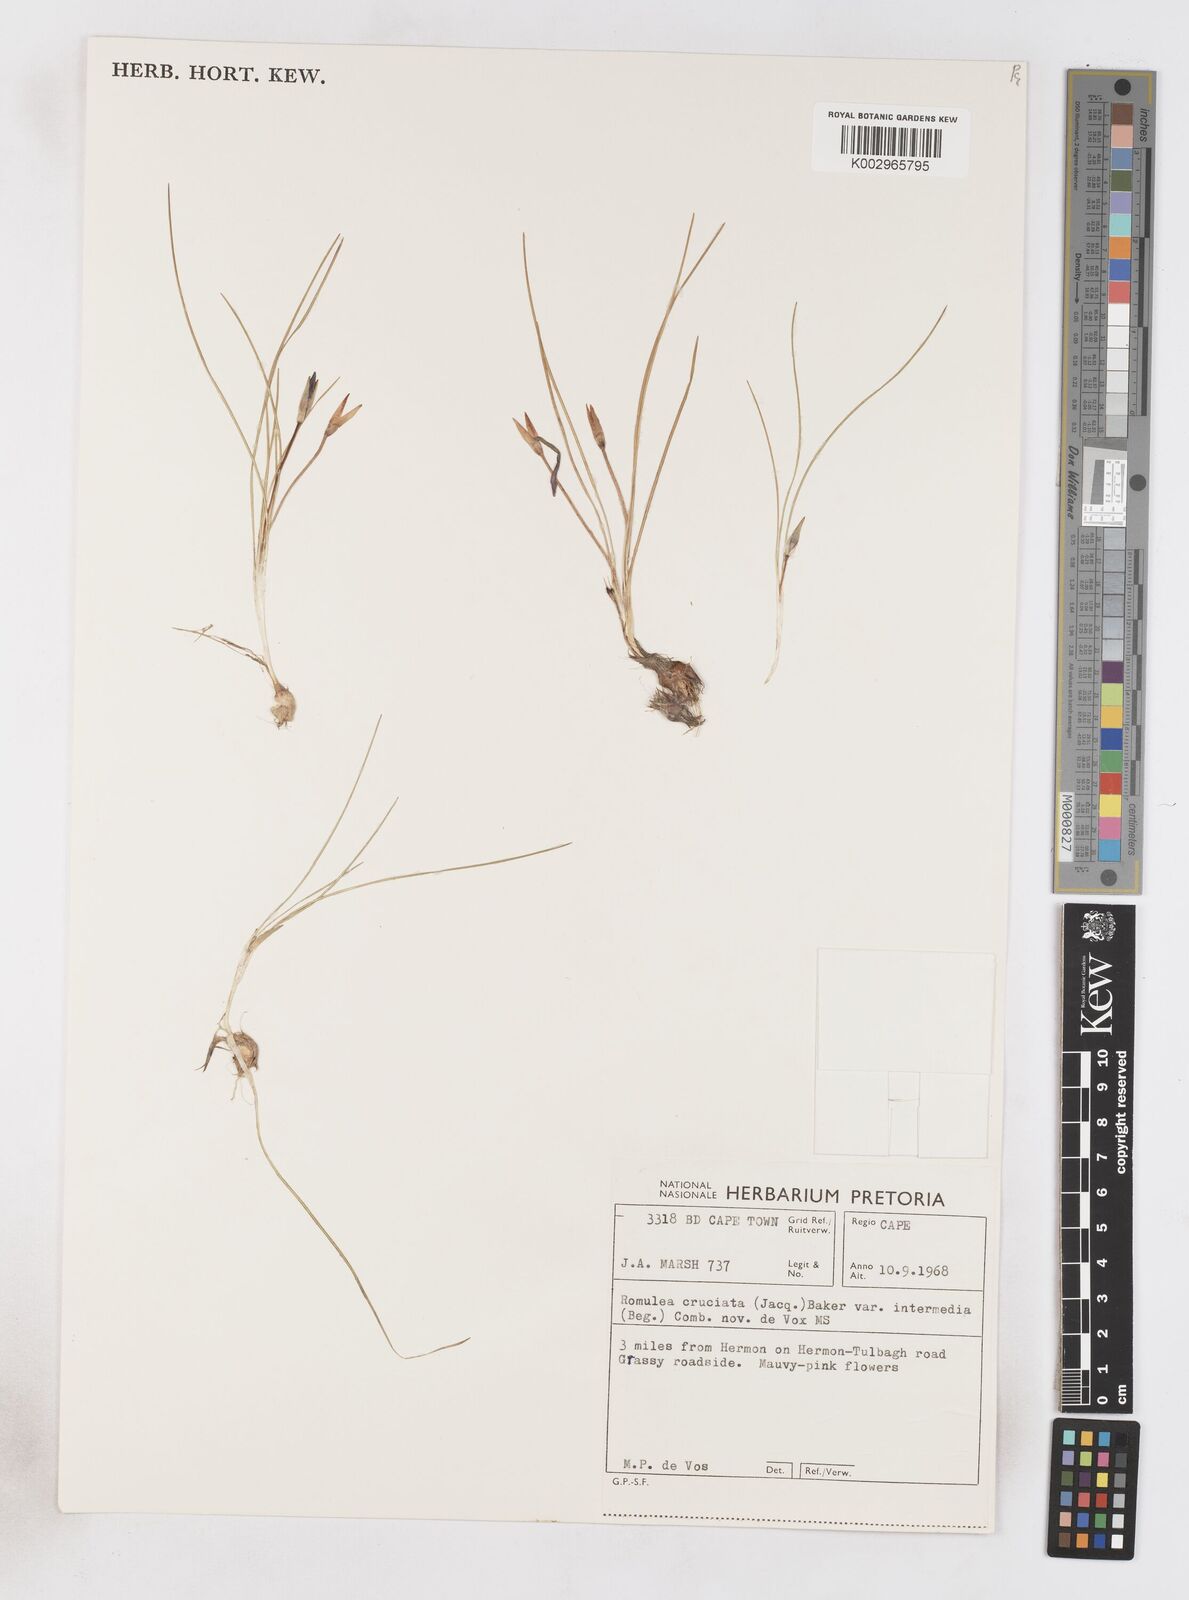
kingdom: Plantae
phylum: Tracheophyta
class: Liliopsida
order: Asparagales
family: Iridaceae
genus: Romulea
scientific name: Romulea cruciata
